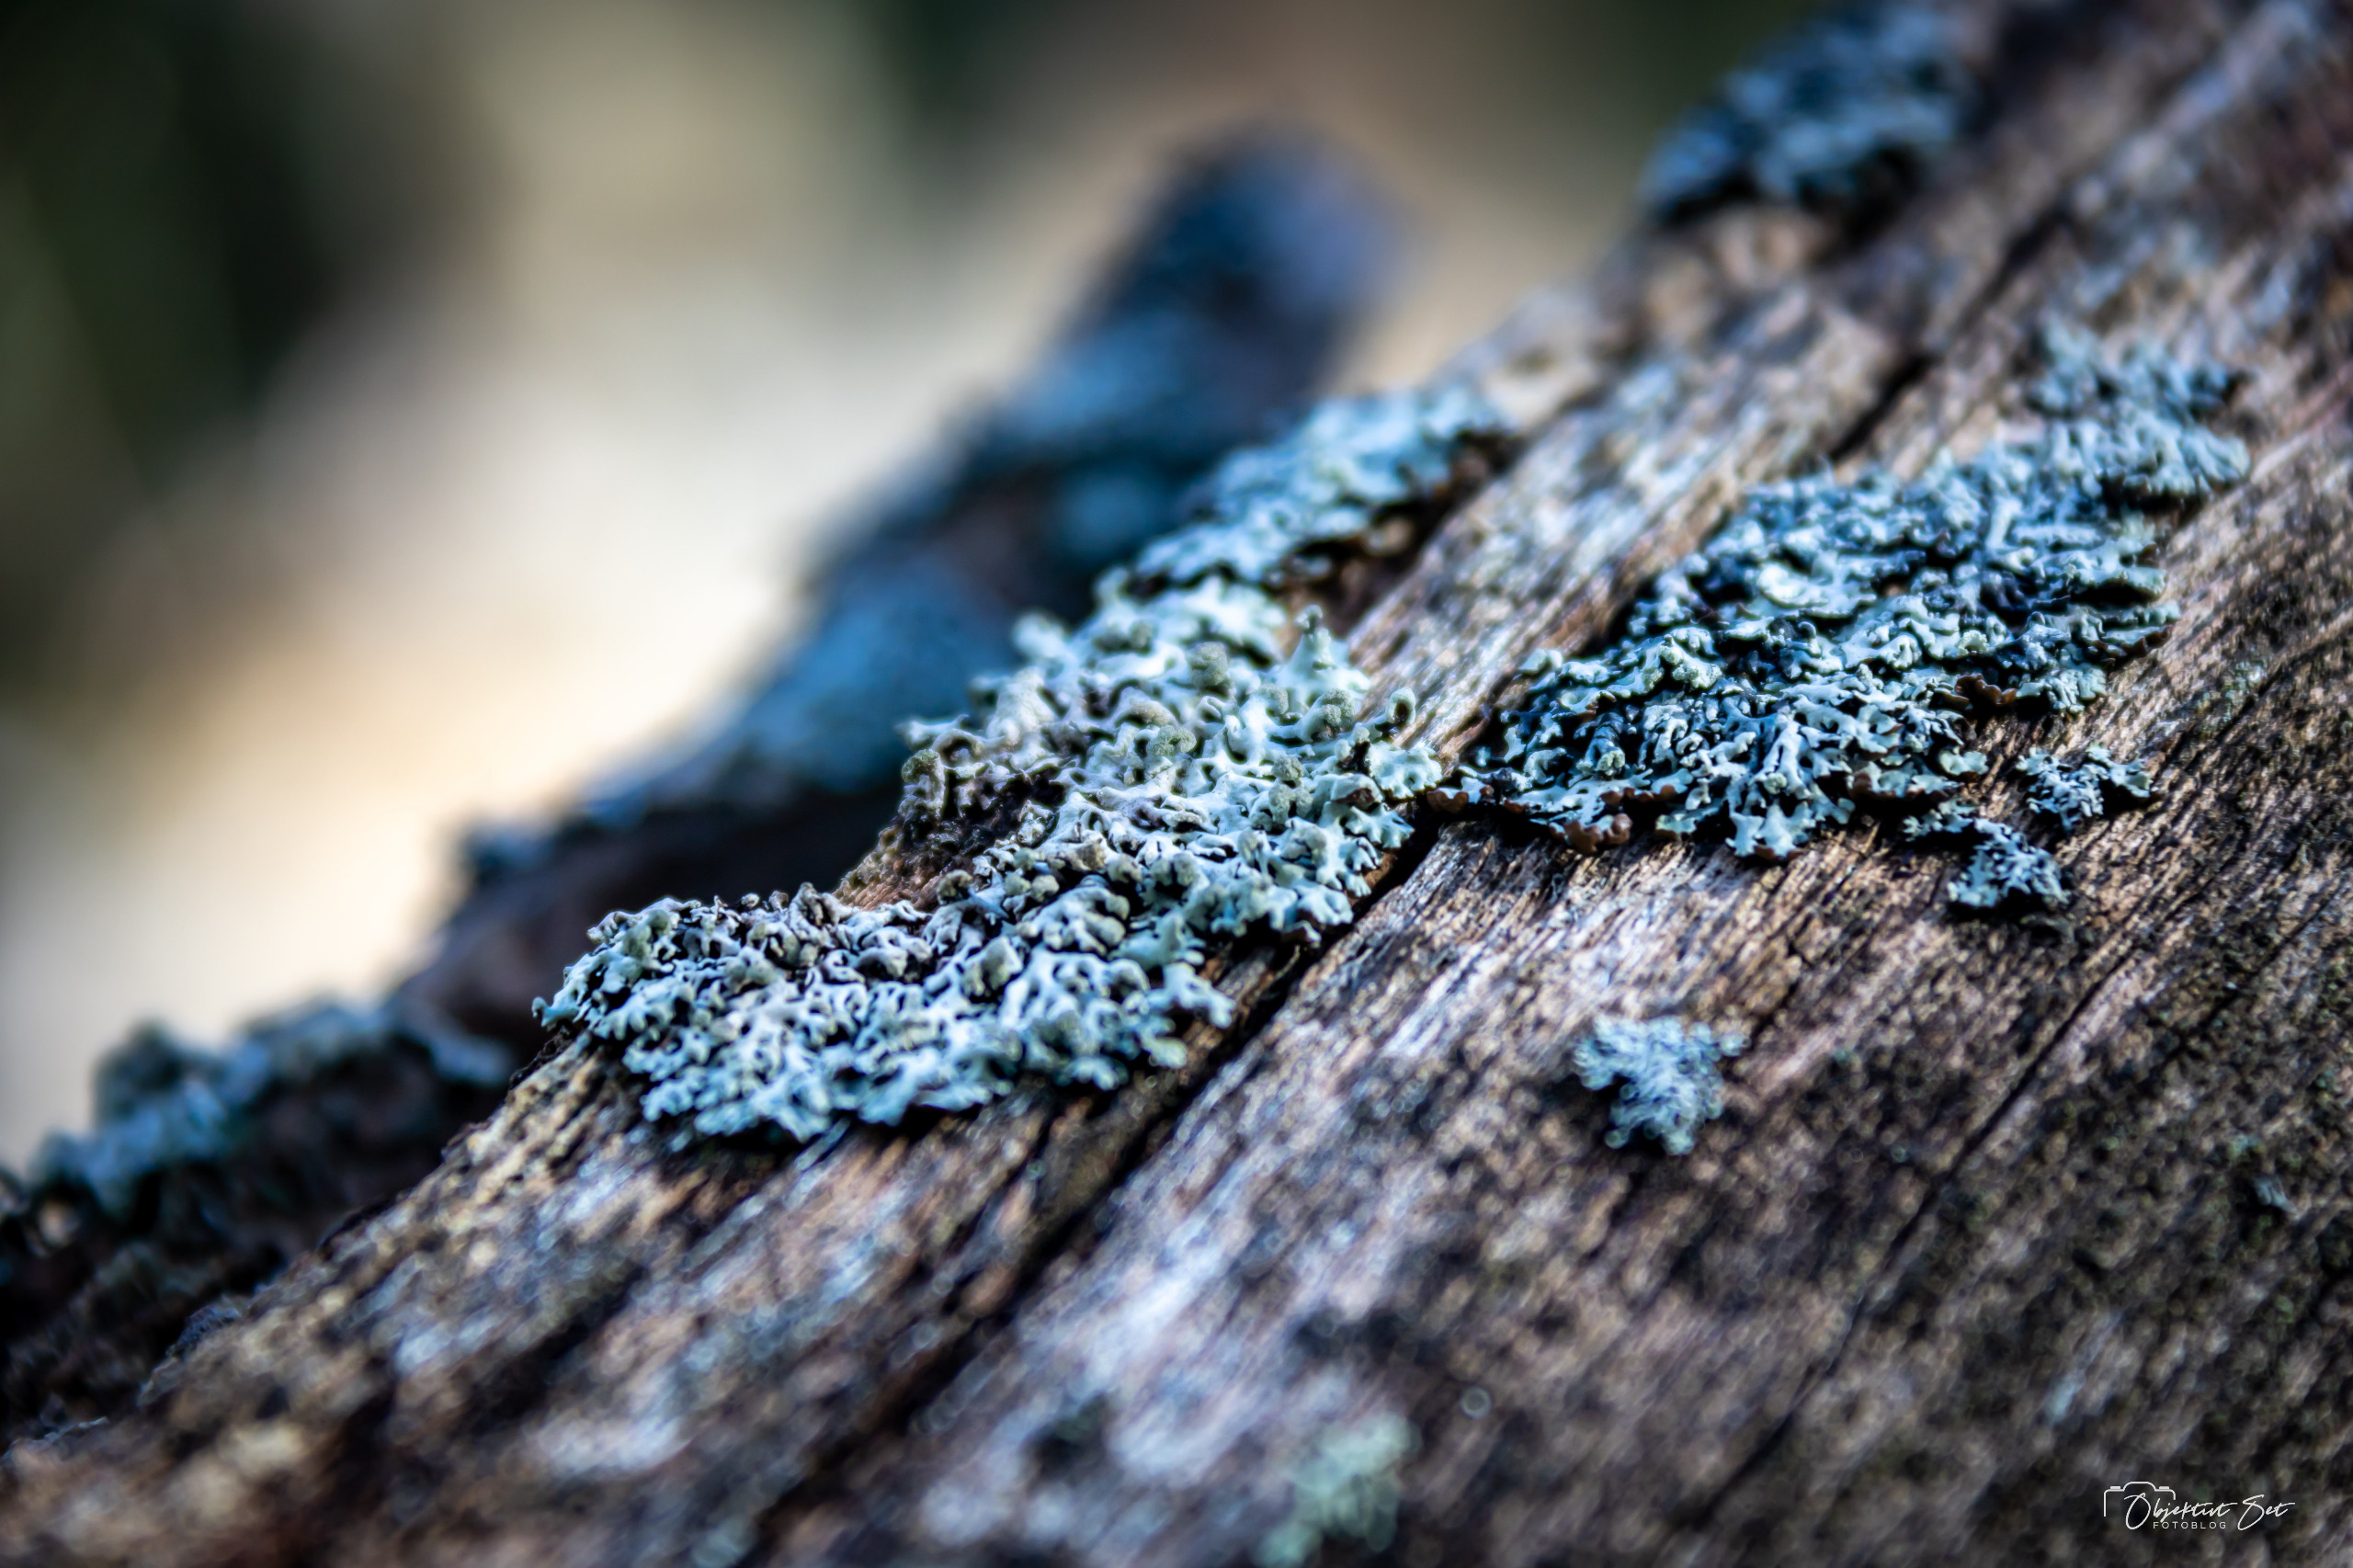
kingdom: Fungi
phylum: Ascomycota
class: Lecanoromycetes
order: Lecanorales
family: Parmeliaceae
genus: Hypogymnia
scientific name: Hypogymnia physodes
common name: Almindelig kvistlav
